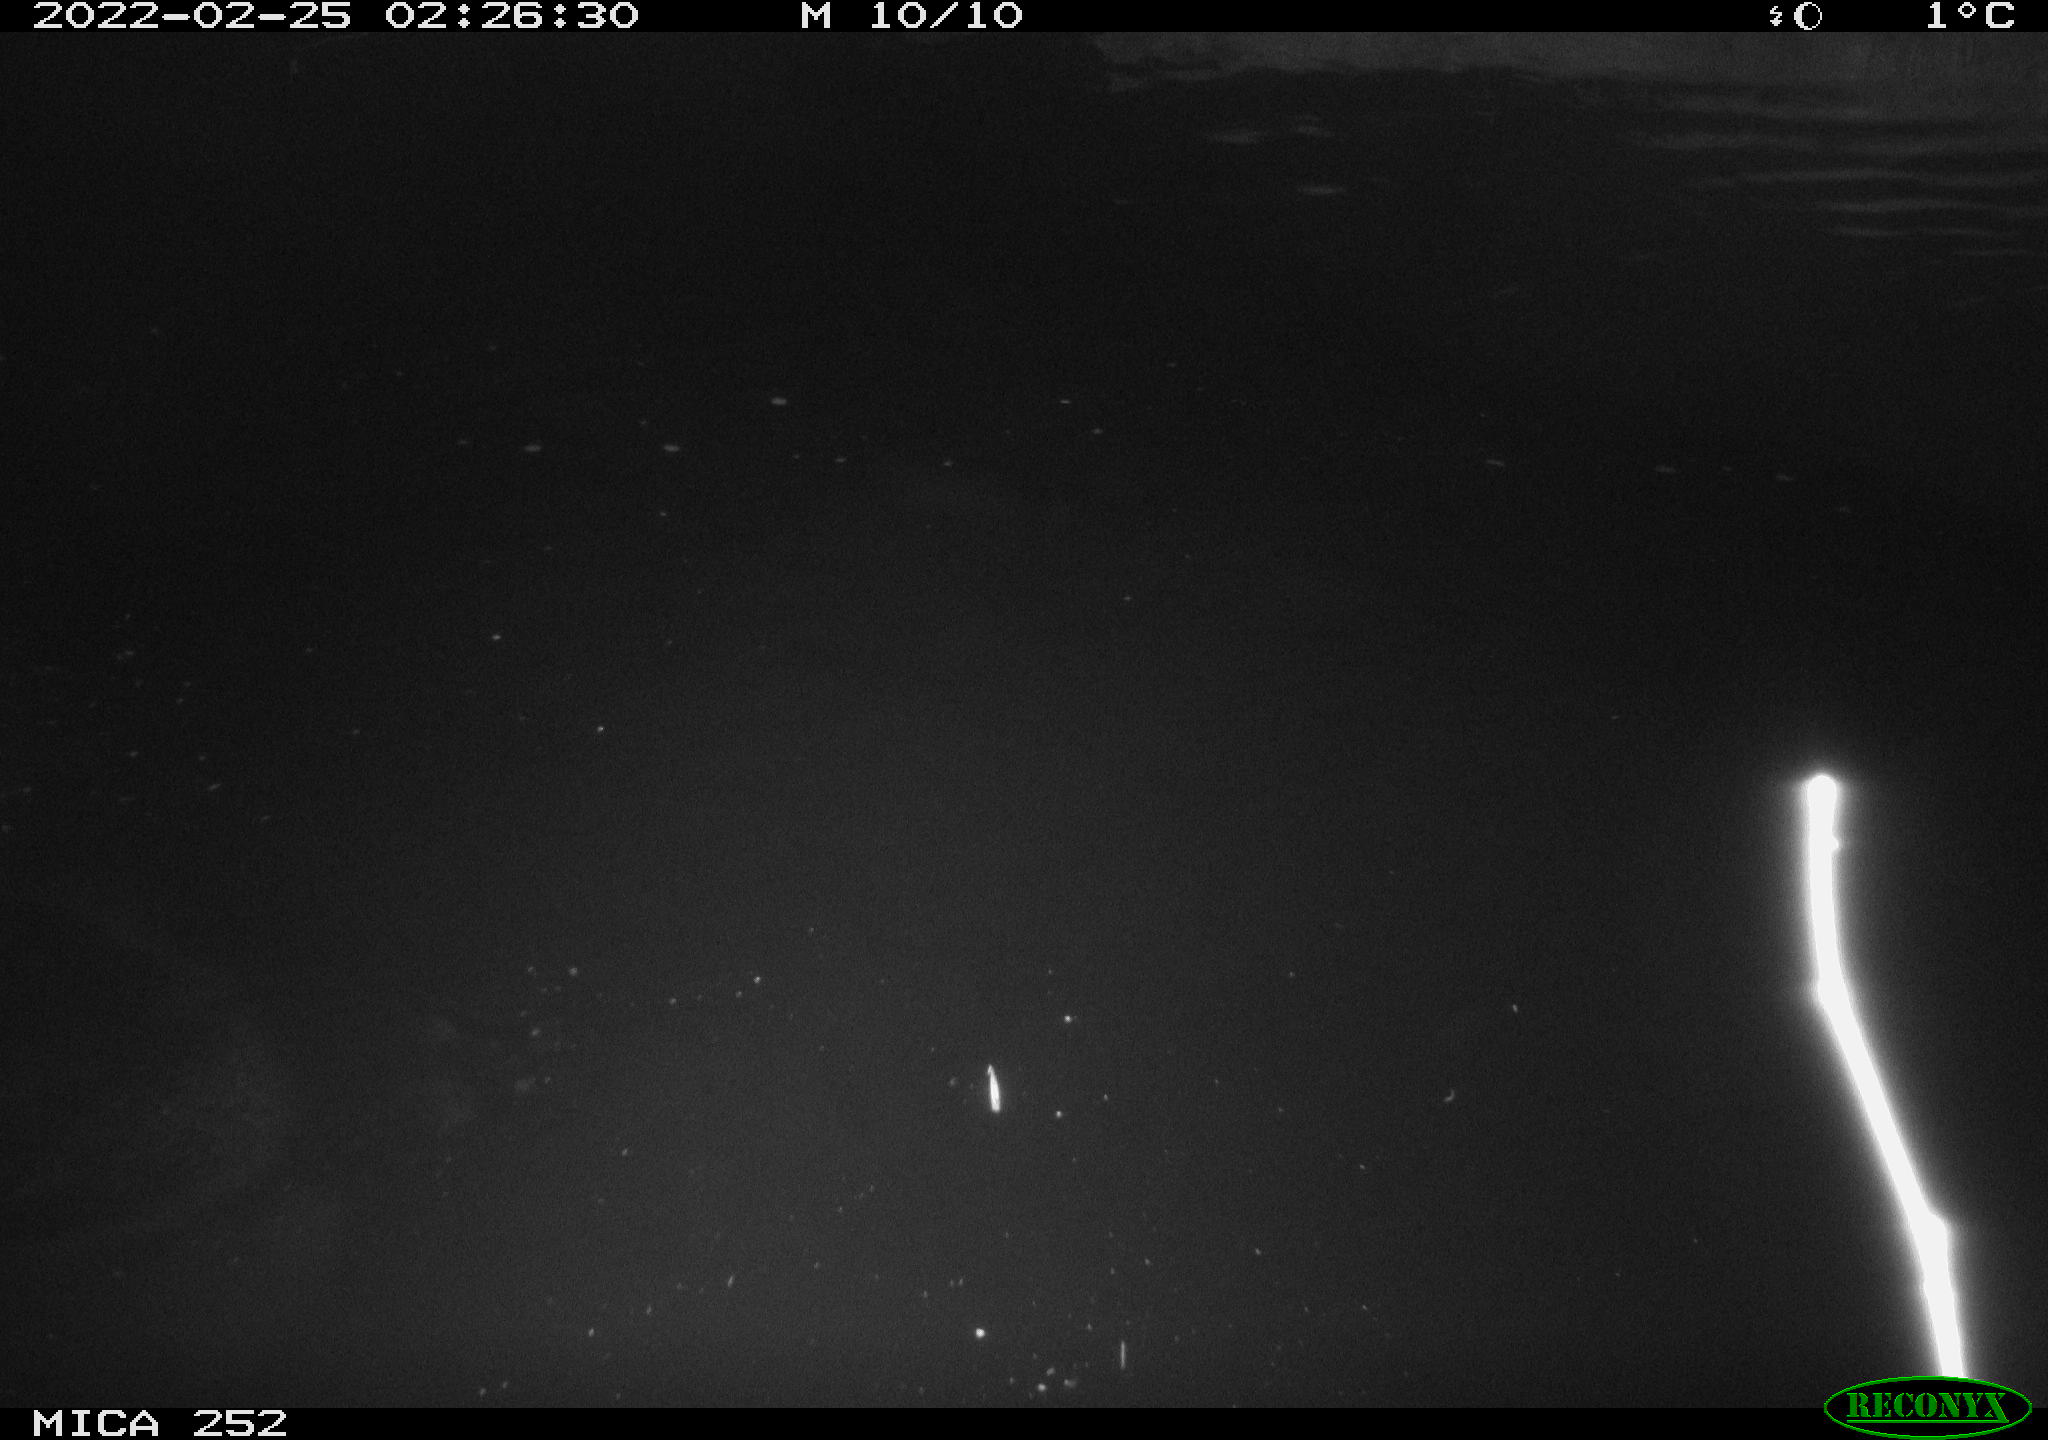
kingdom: Animalia
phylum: Chordata
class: Mammalia
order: Rodentia
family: Castoridae
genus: Castor
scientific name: Castor fiber
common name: Eurasian beaver
